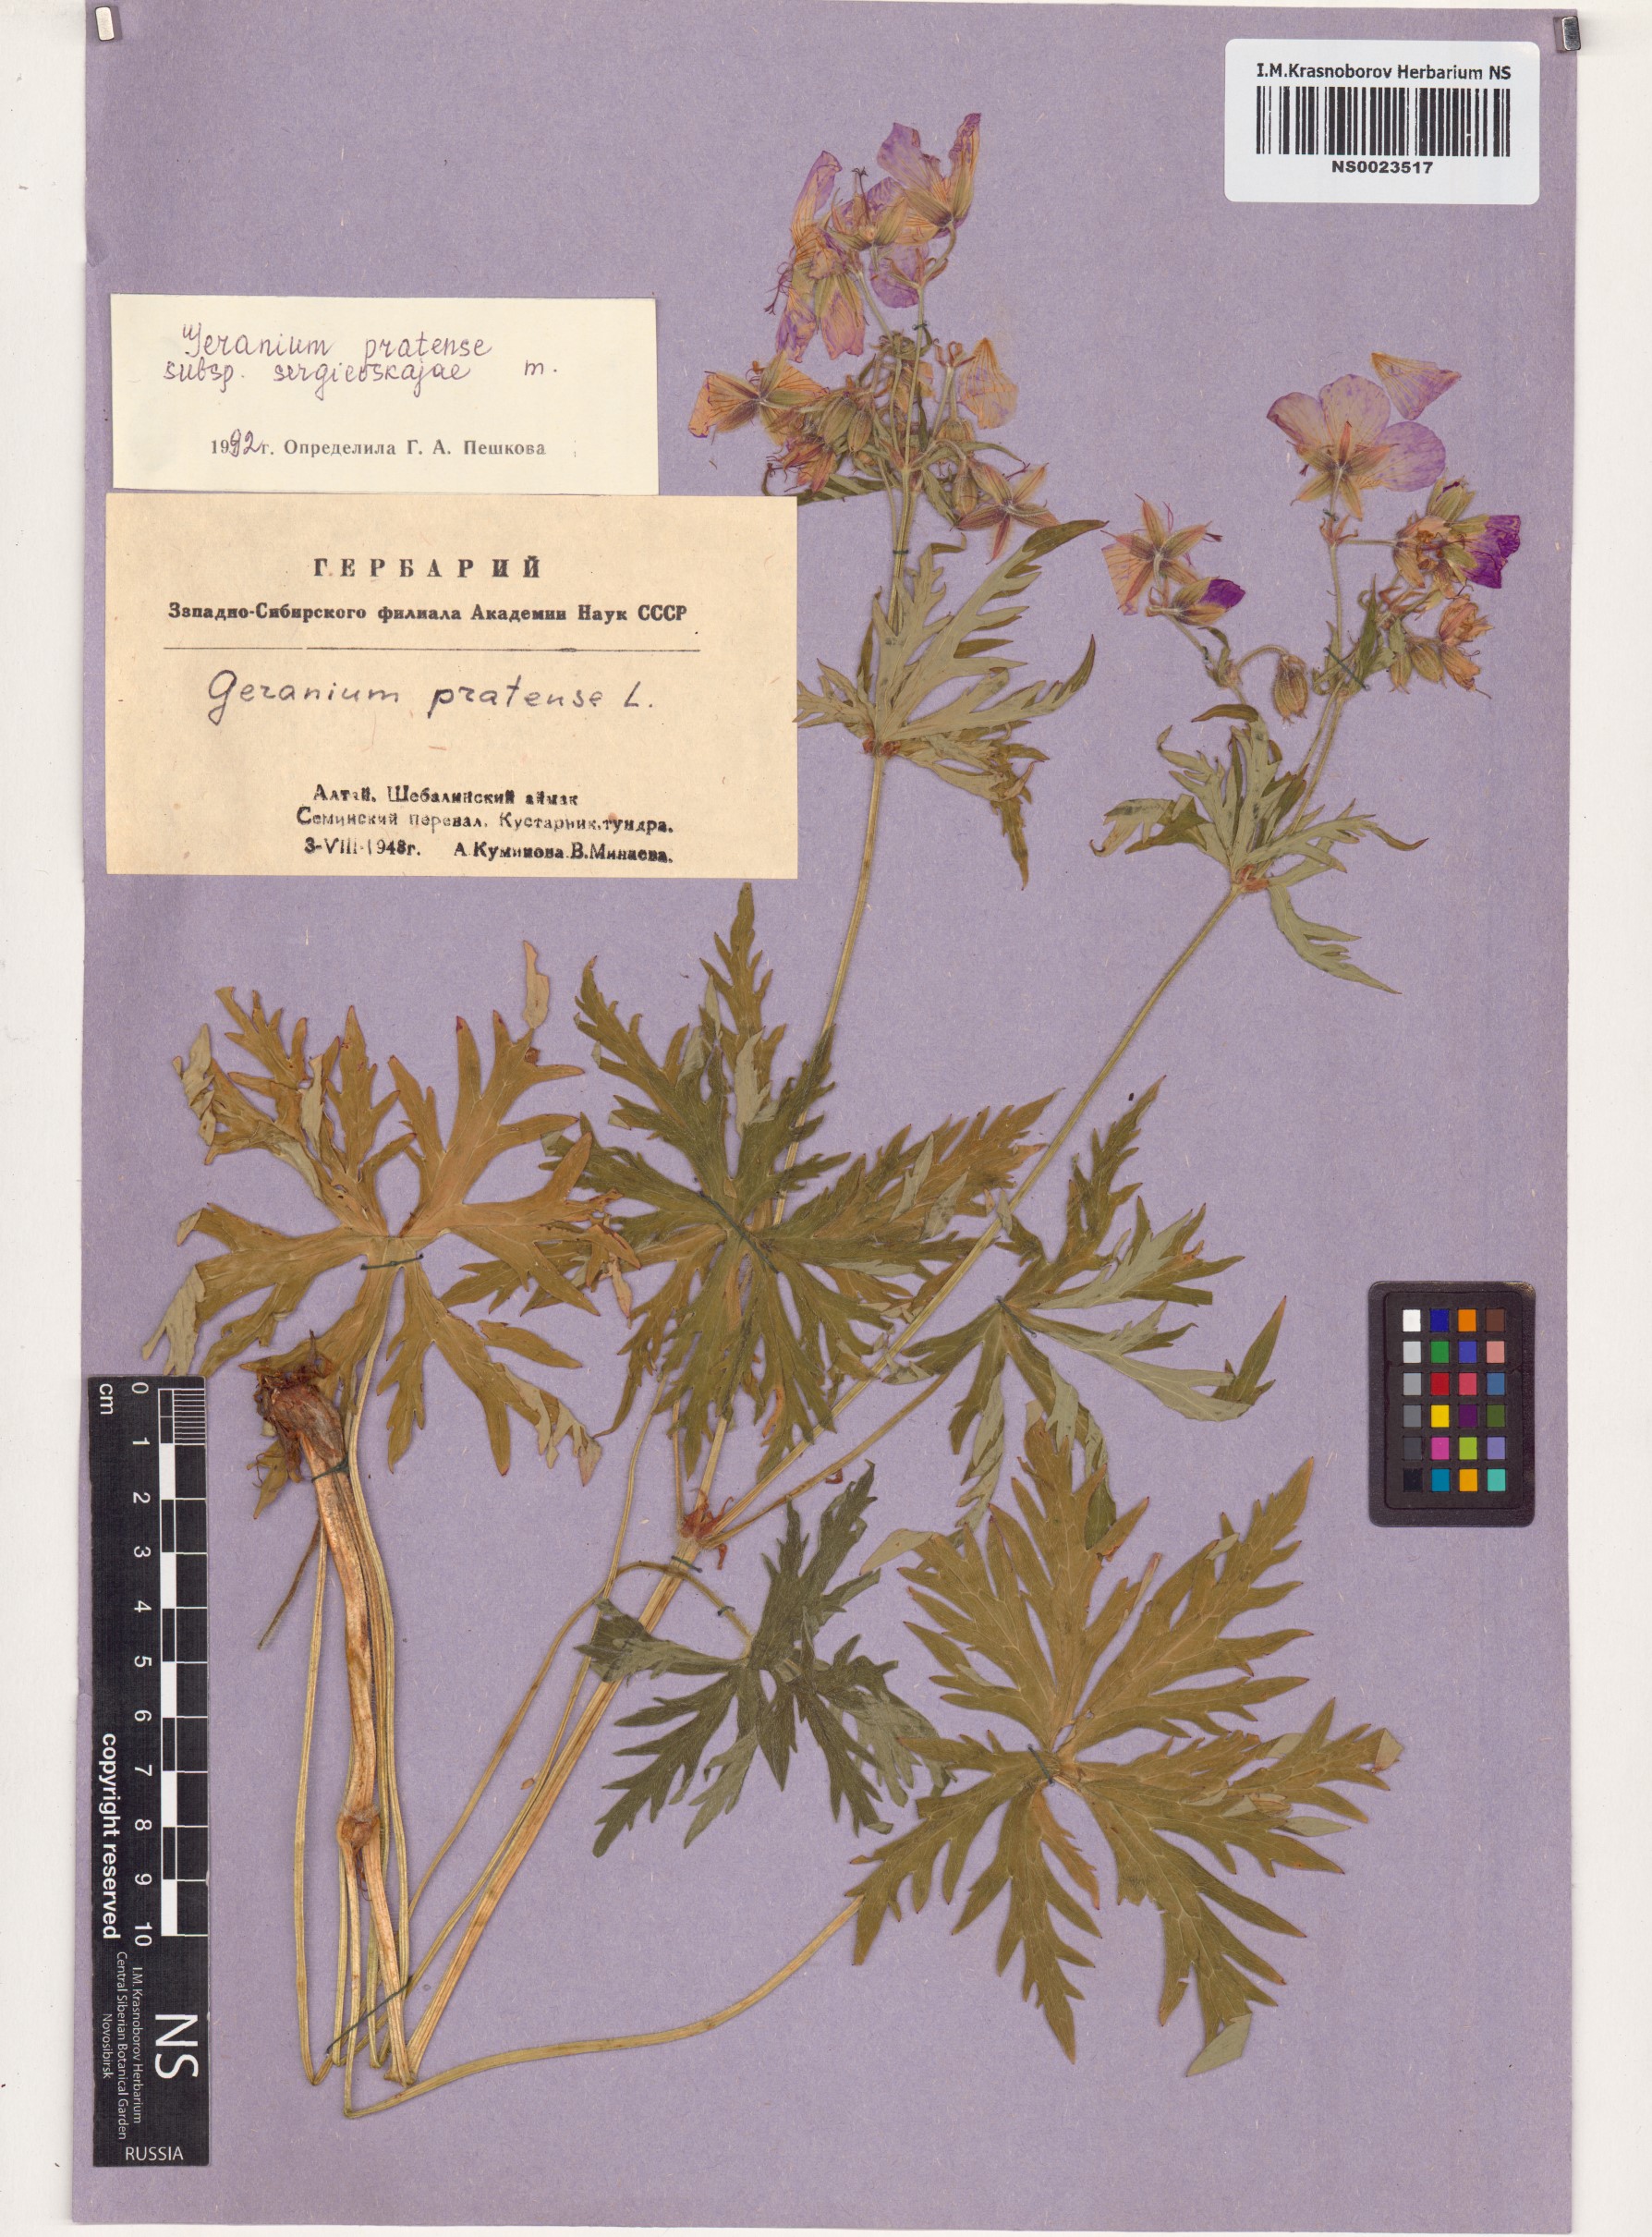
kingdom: Plantae
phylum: Tracheophyta
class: Magnoliopsida
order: Geraniales
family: Geraniaceae
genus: Geranium
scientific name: Geranium pratense
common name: Meadow crane's-bill
